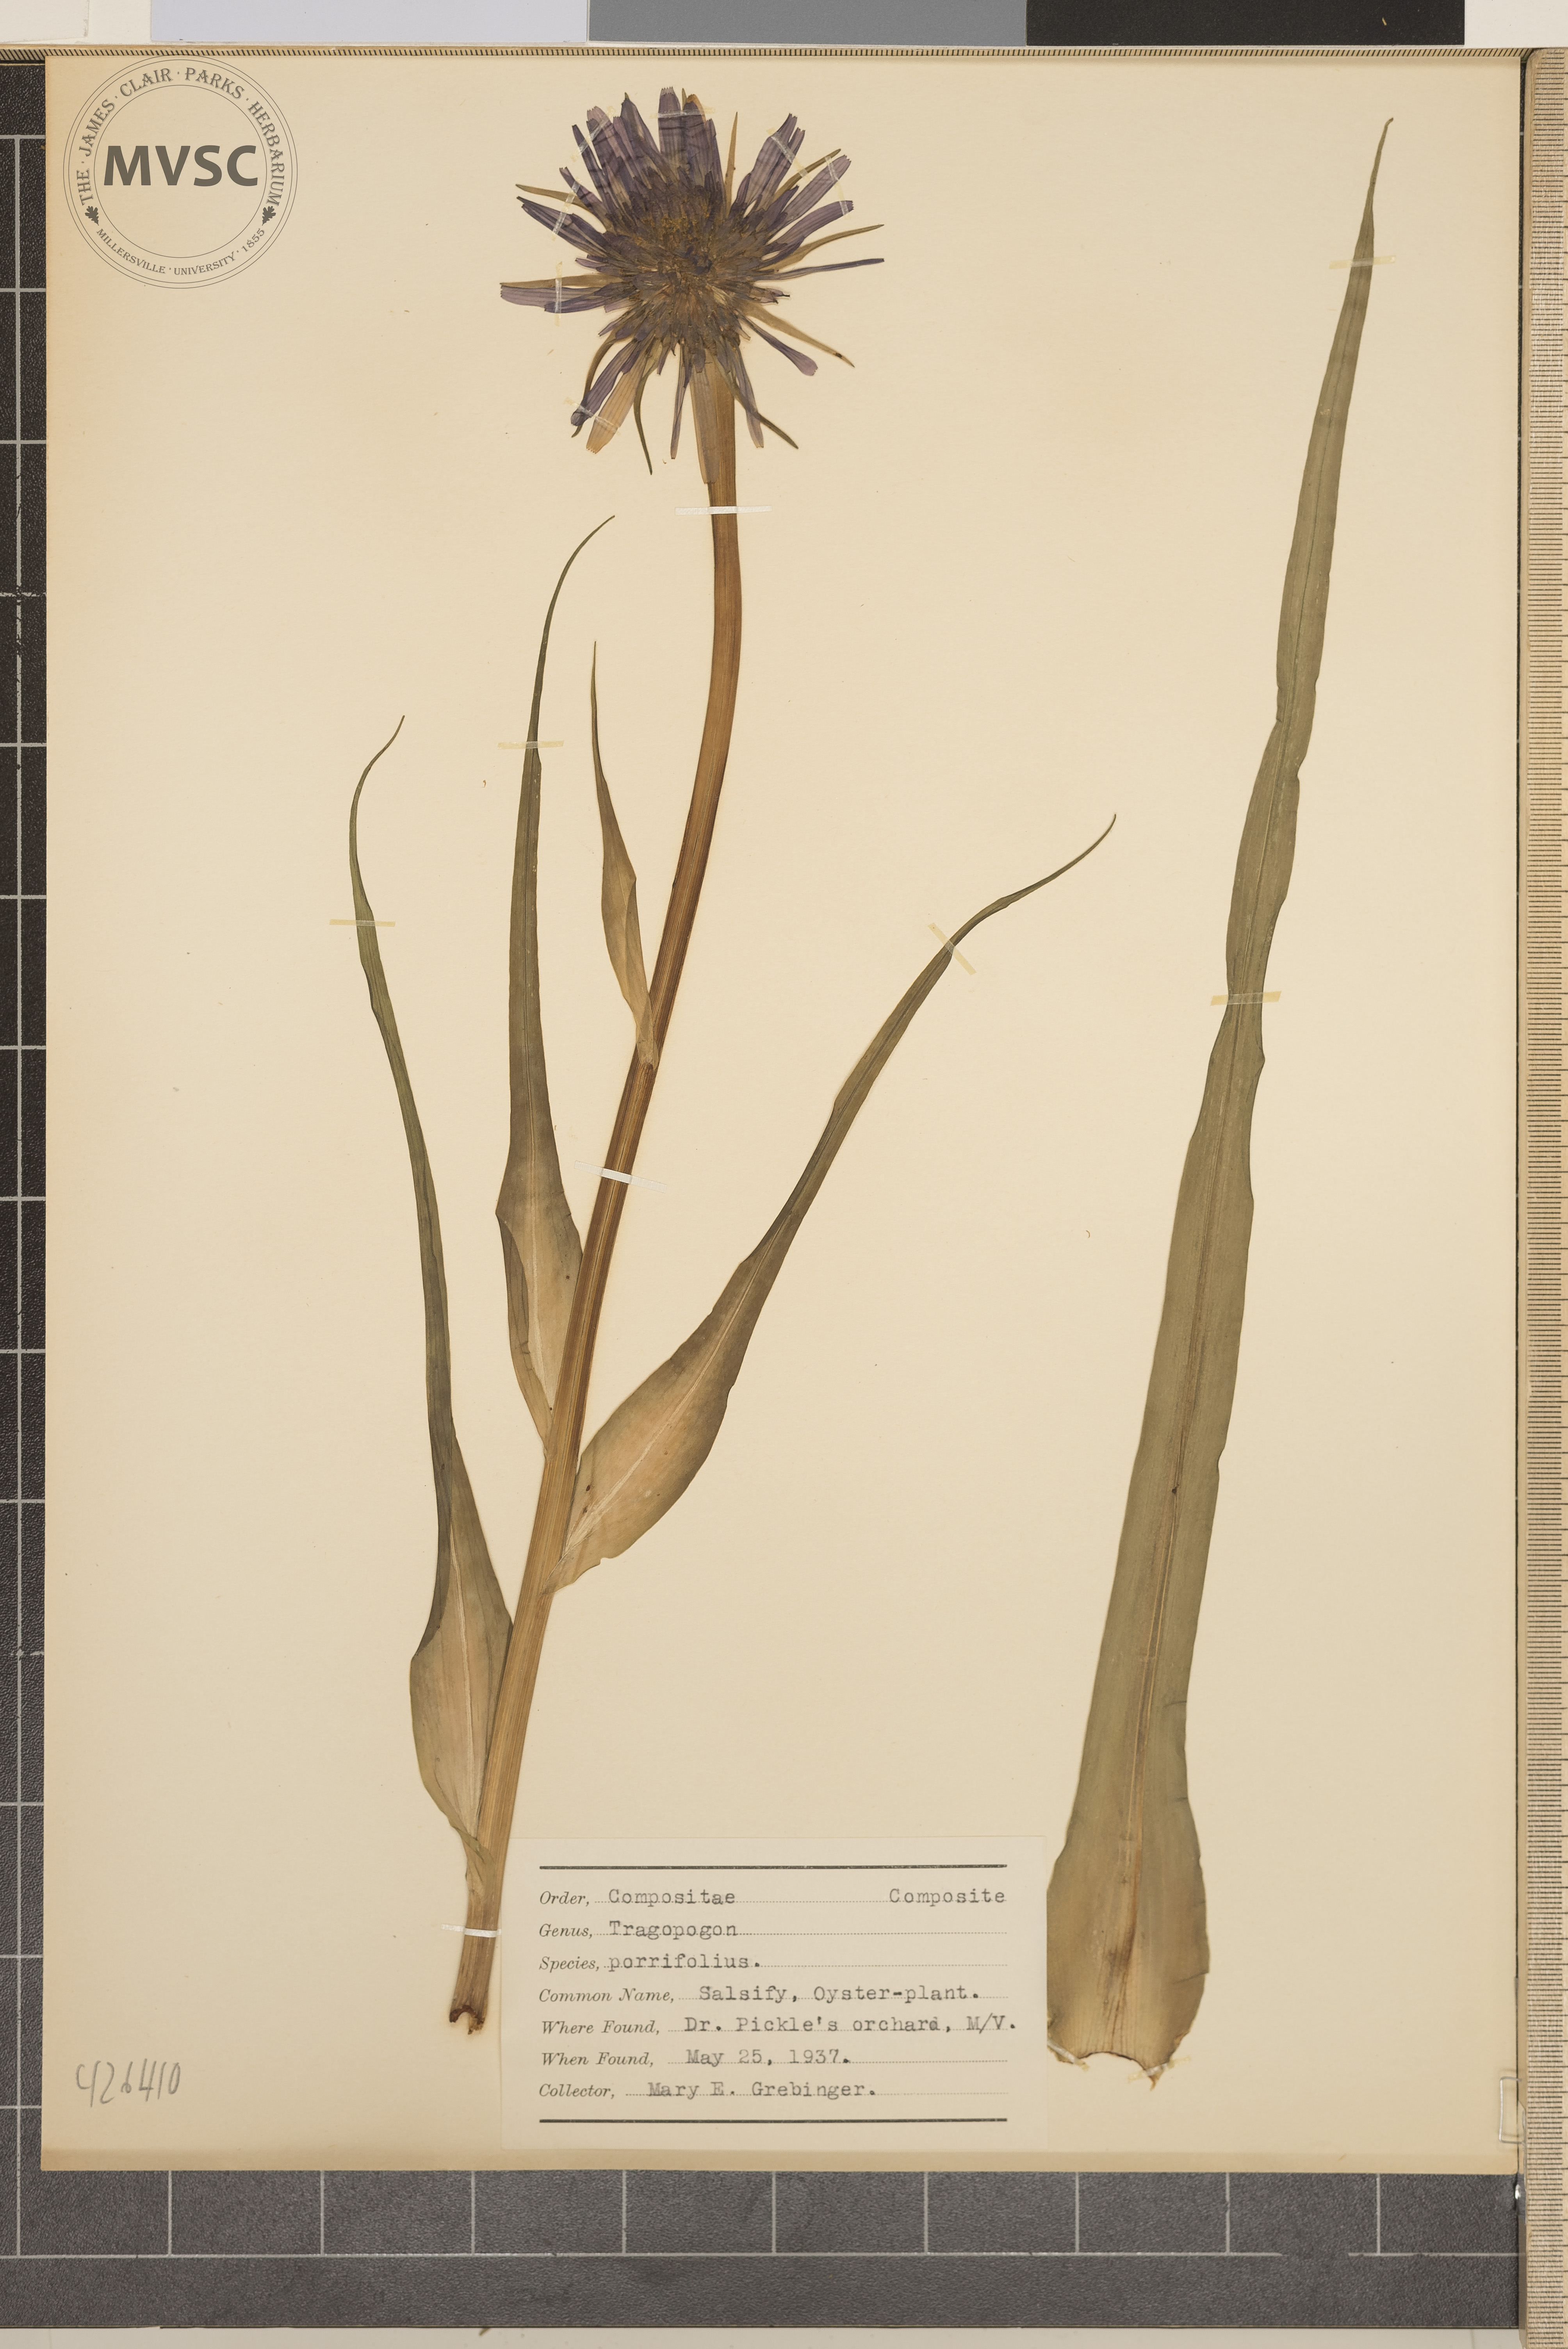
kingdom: Plantae
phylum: Tracheophyta
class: Magnoliopsida
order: Asterales
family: Asteraceae
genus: Tragopogon
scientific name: Tragopogon porrifolius
